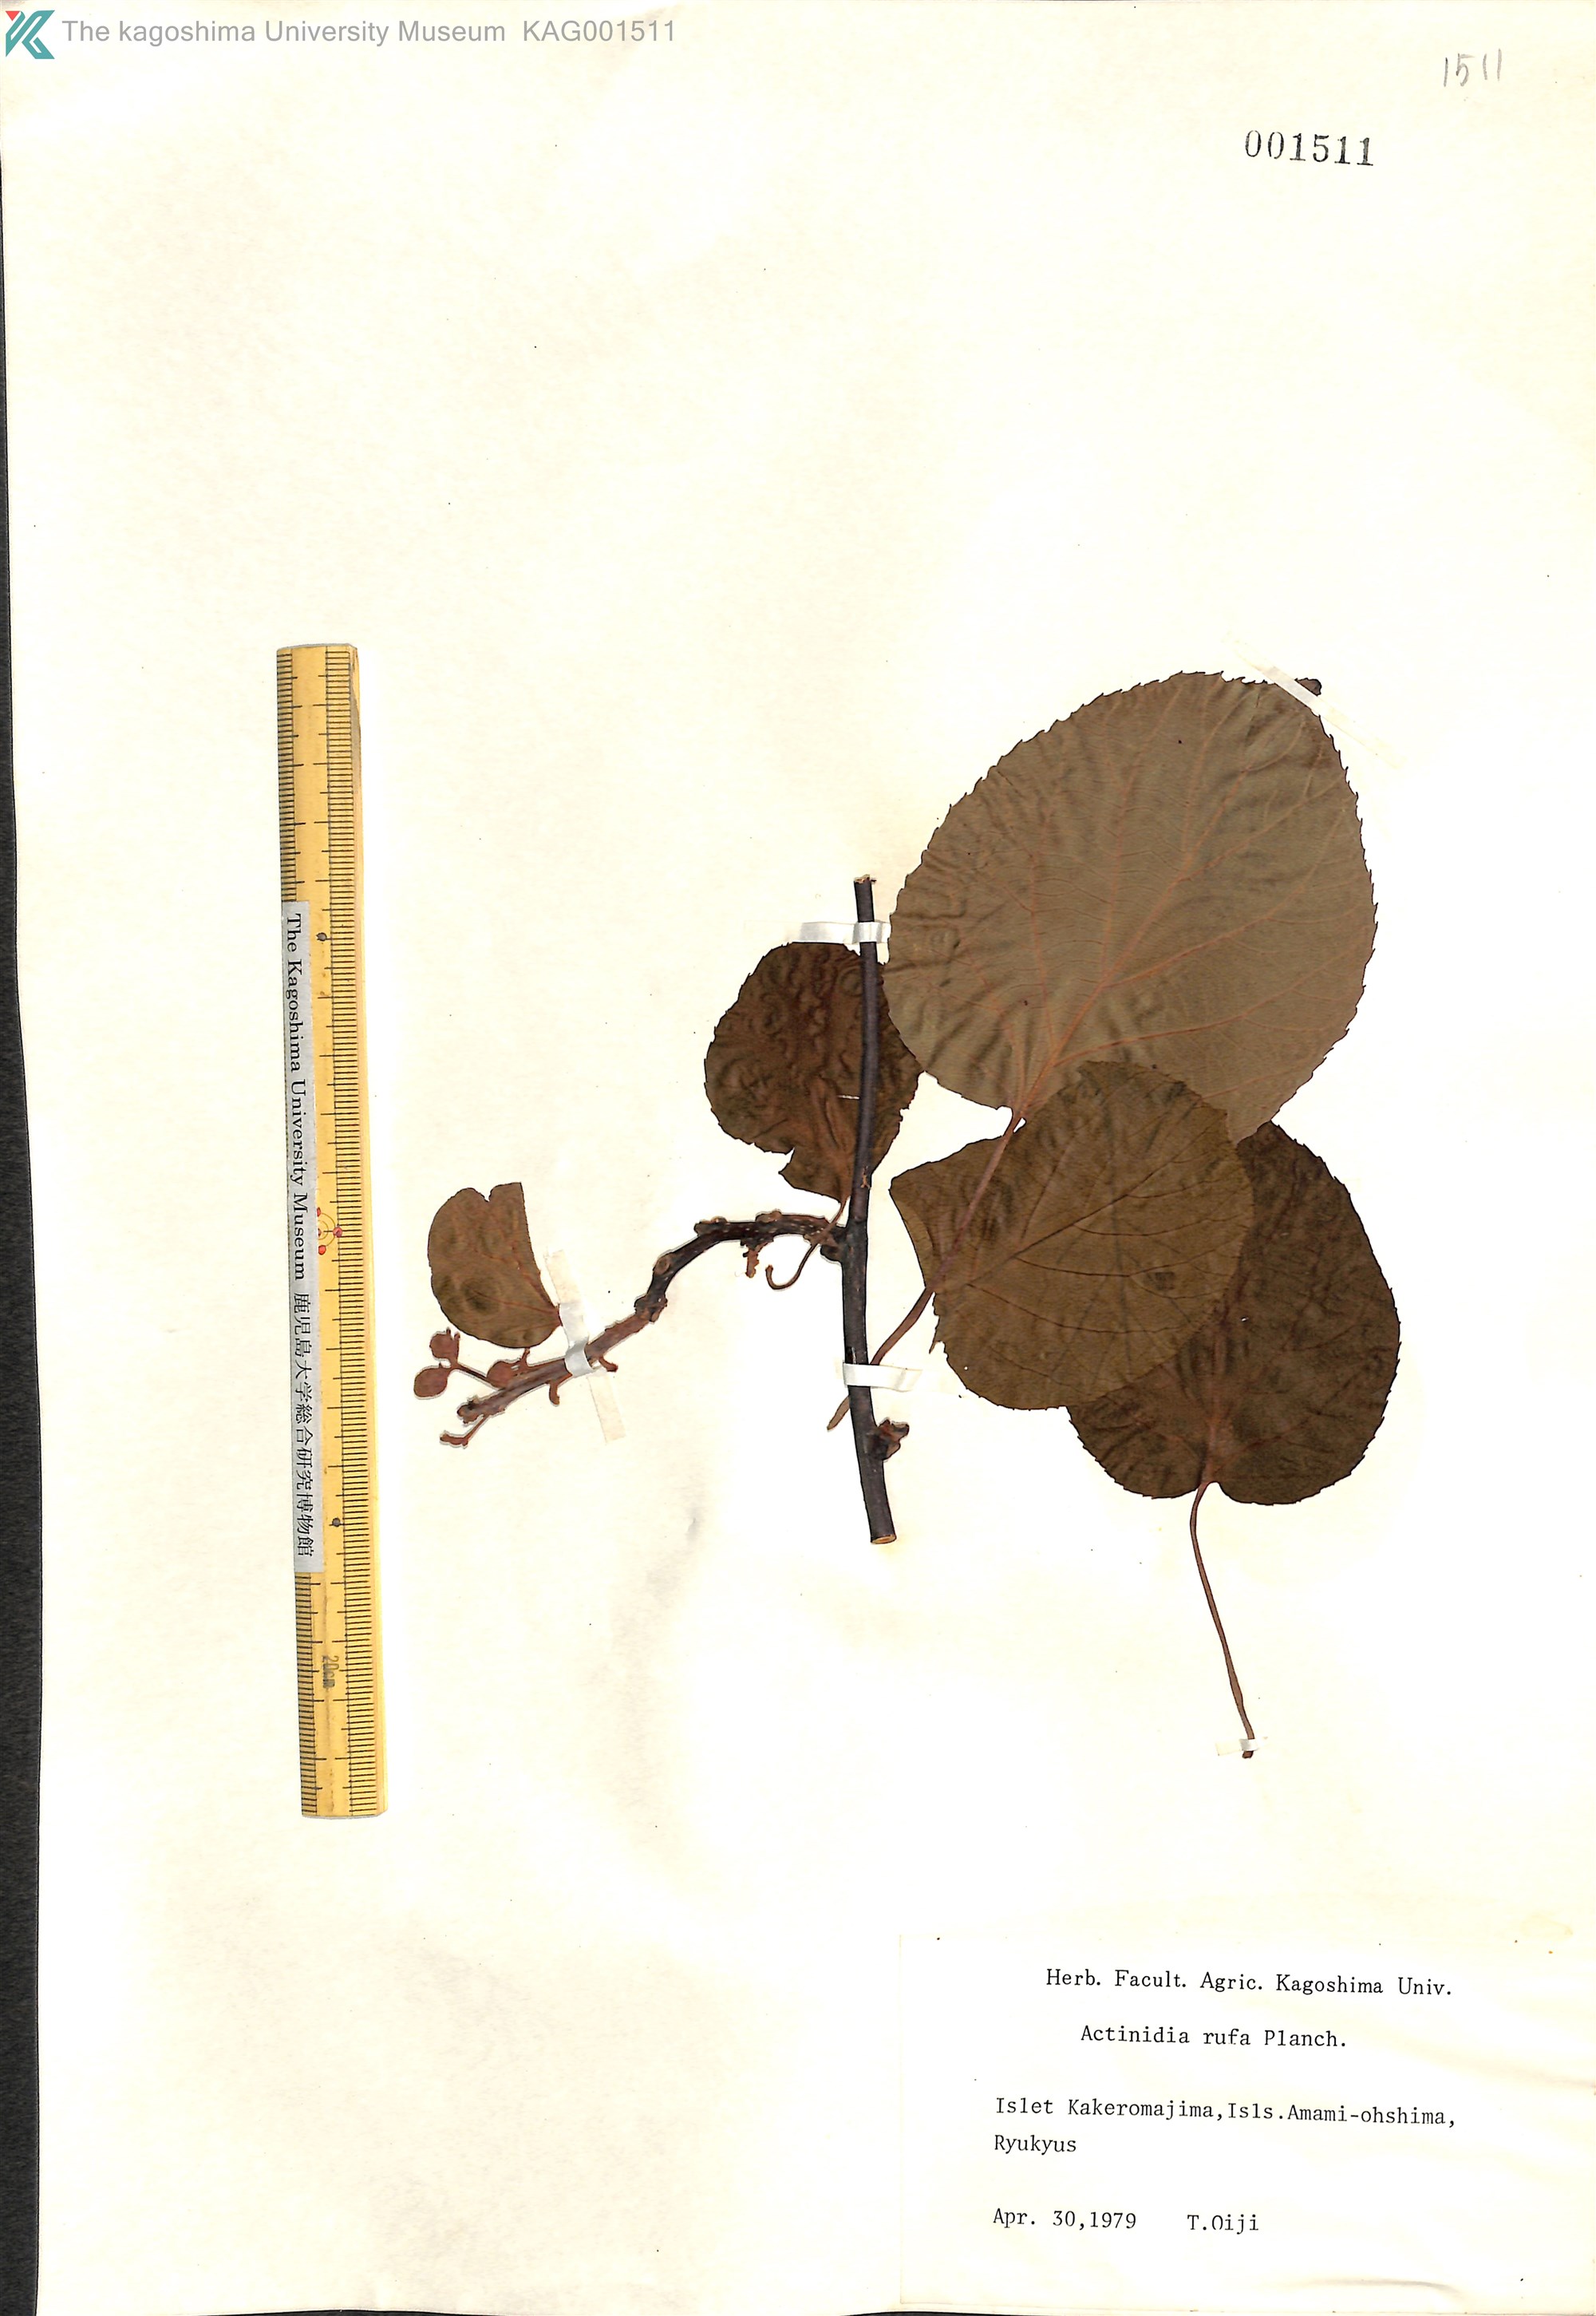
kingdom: Plantae
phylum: Tracheophyta
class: Magnoliopsida
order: Ericales
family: Actinidiaceae
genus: Actinidia
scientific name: Actinidia rufa
